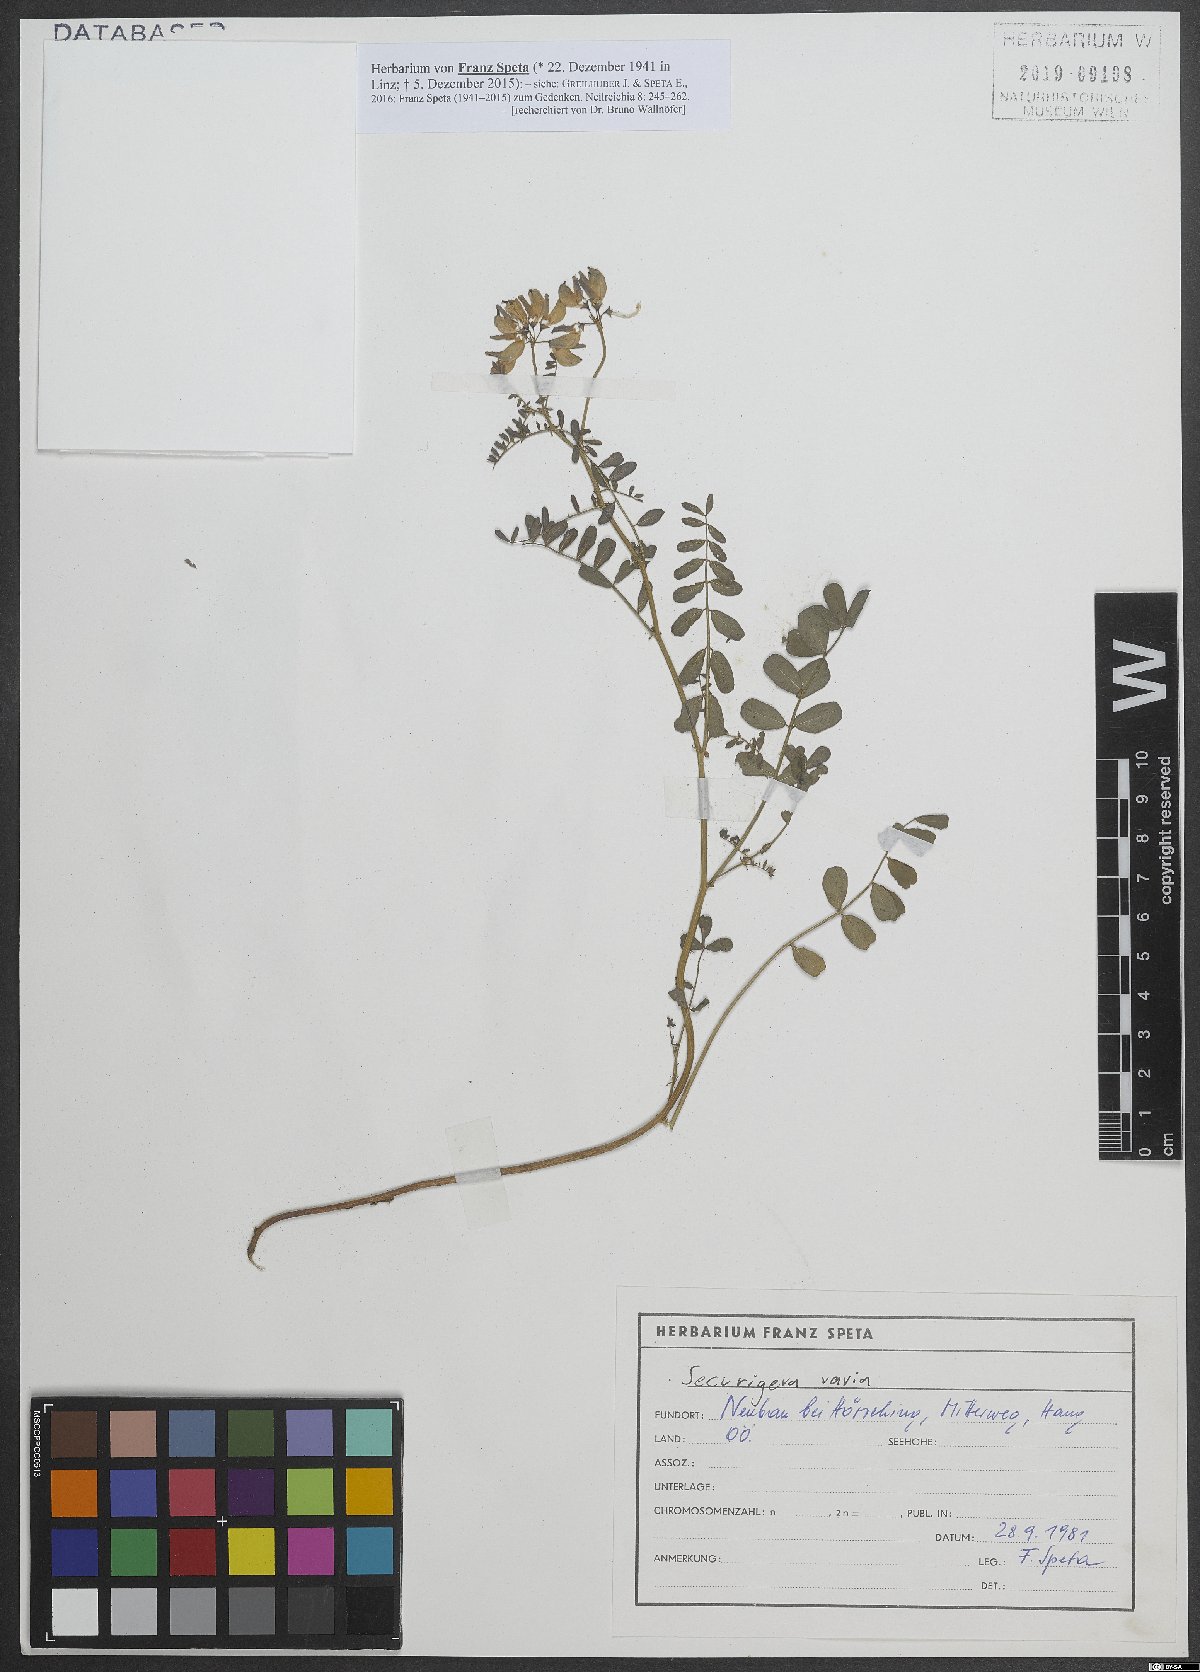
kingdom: Plantae
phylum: Tracheophyta
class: Magnoliopsida
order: Fabales
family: Fabaceae
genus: Coronilla
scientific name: Coronilla varia
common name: Crownvetch
